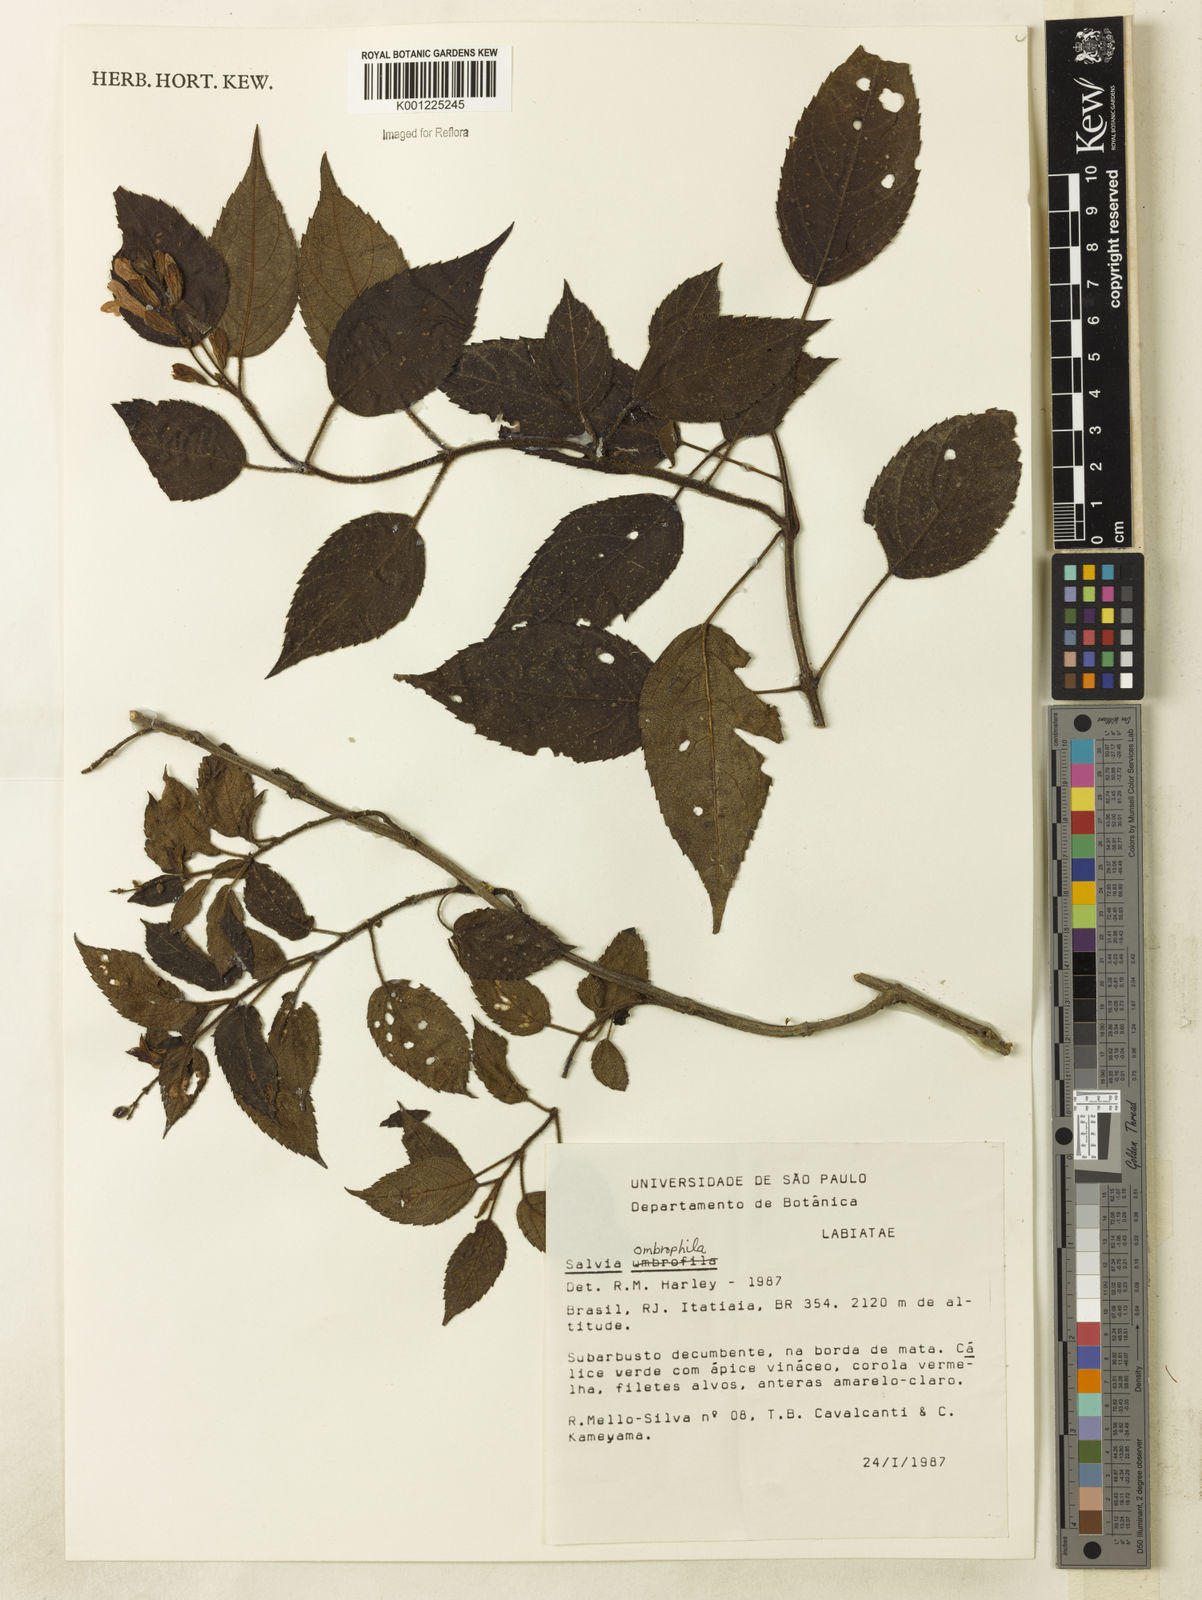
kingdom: Plantae
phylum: Tracheophyta
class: Magnoliopsida
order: Lamiales
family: Lamiaceae
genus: Salvia
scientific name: Salvia
